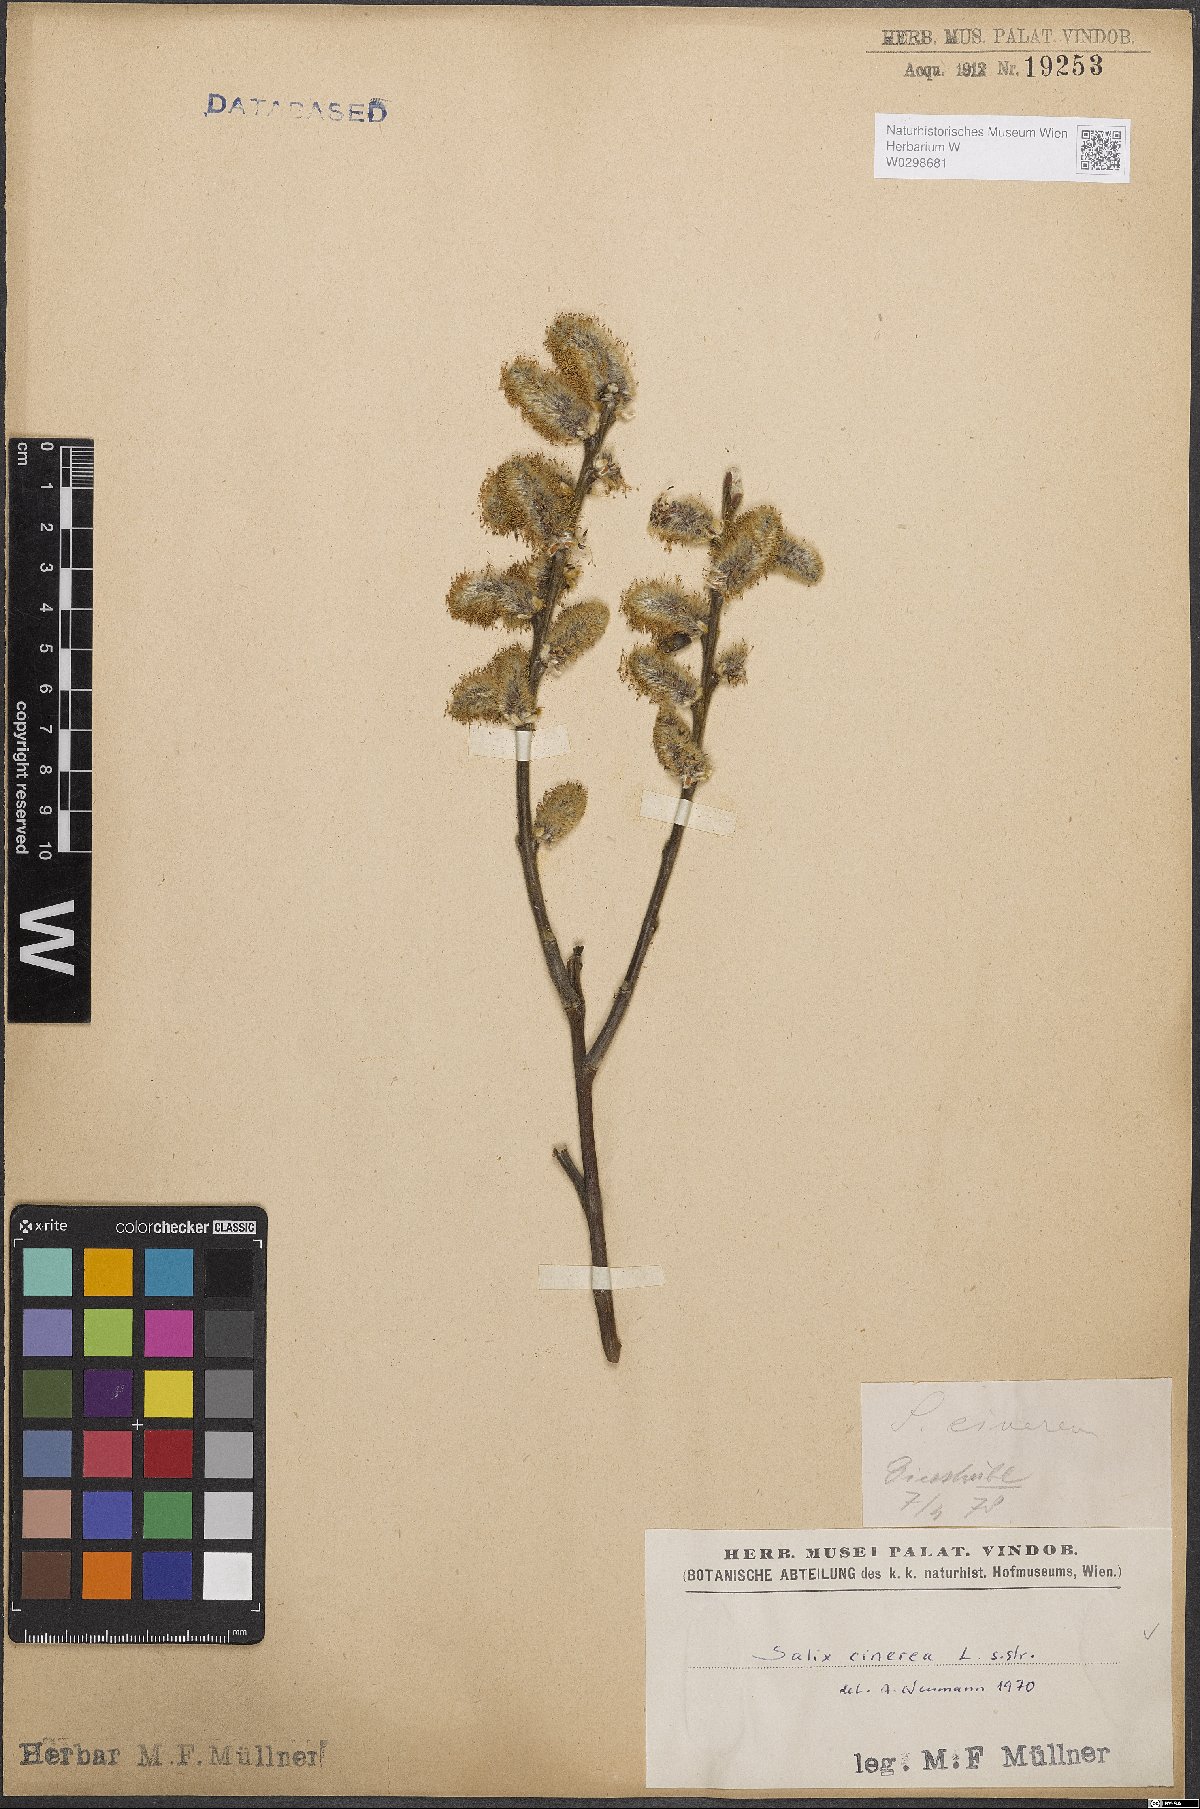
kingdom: Plantae
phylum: Tracheophyta
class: Magnoliopsida
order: Malpighiales
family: Salicaceae
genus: Salix
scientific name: Salix cinerea
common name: Common sallow
